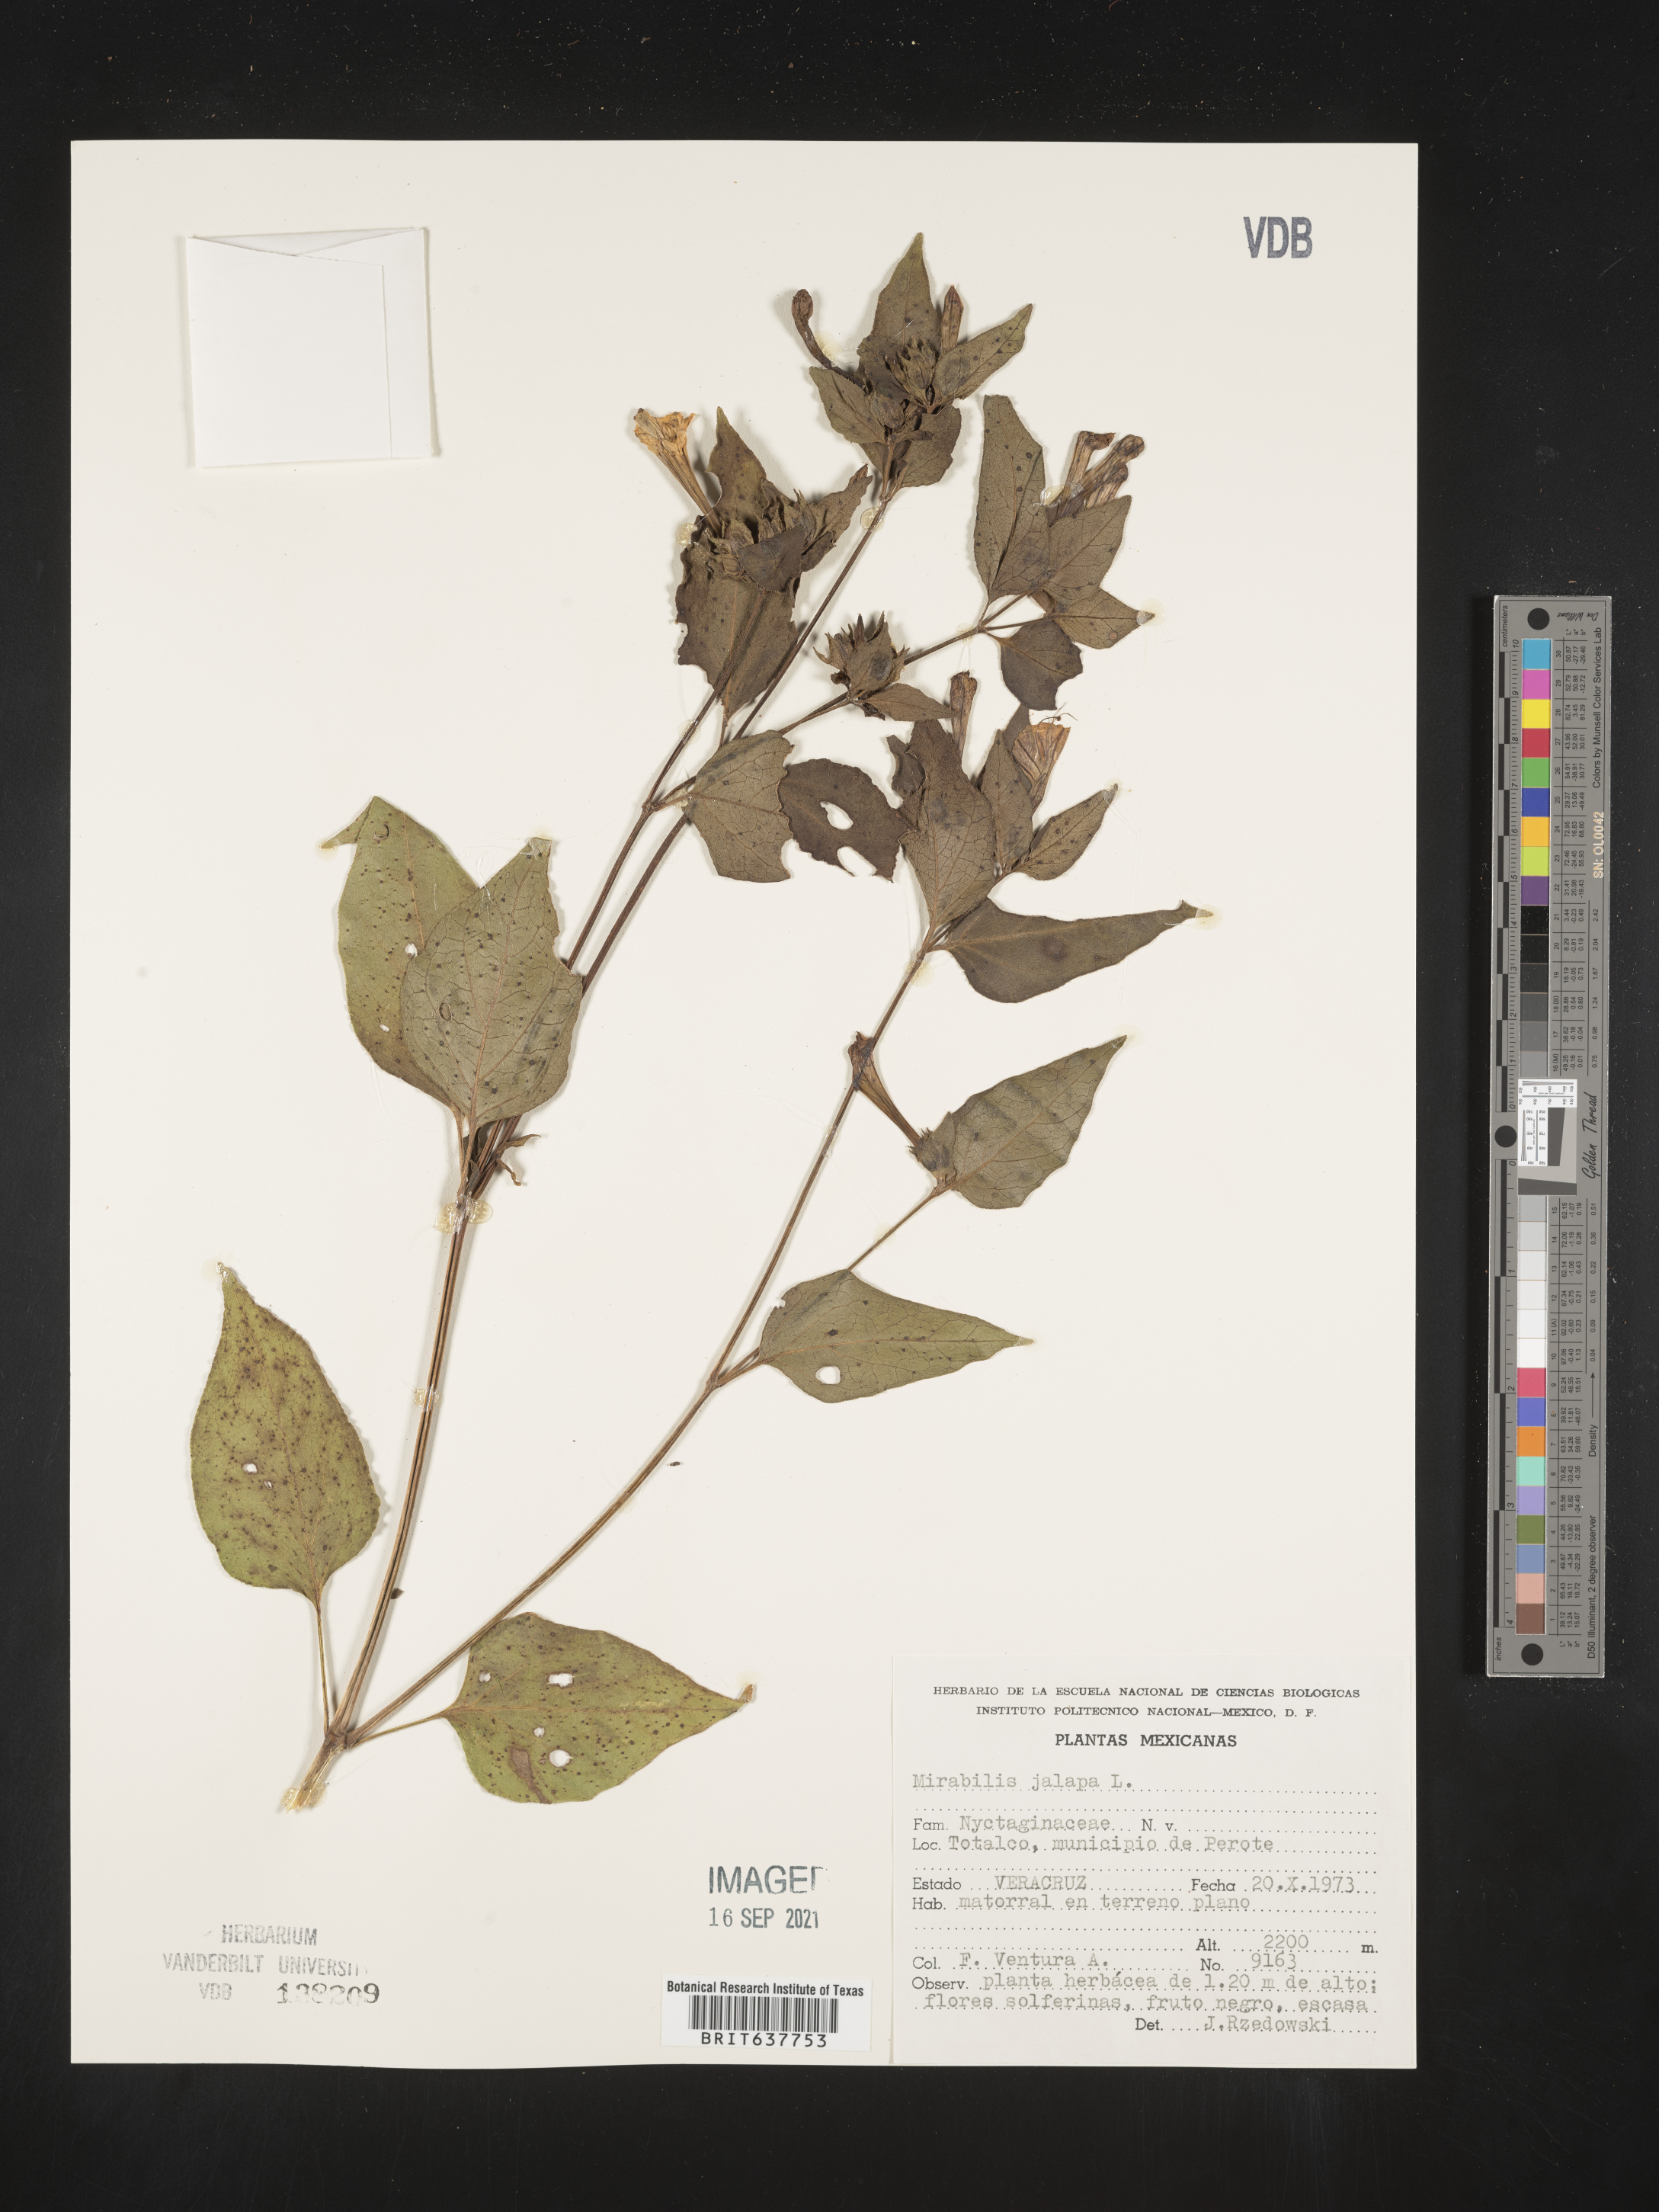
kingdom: Plantae
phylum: Tracheophyta
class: Magnoliopsida
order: Caryophyllales
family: Nyctaginaceae
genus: Mirabilis
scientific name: Mirabilis
